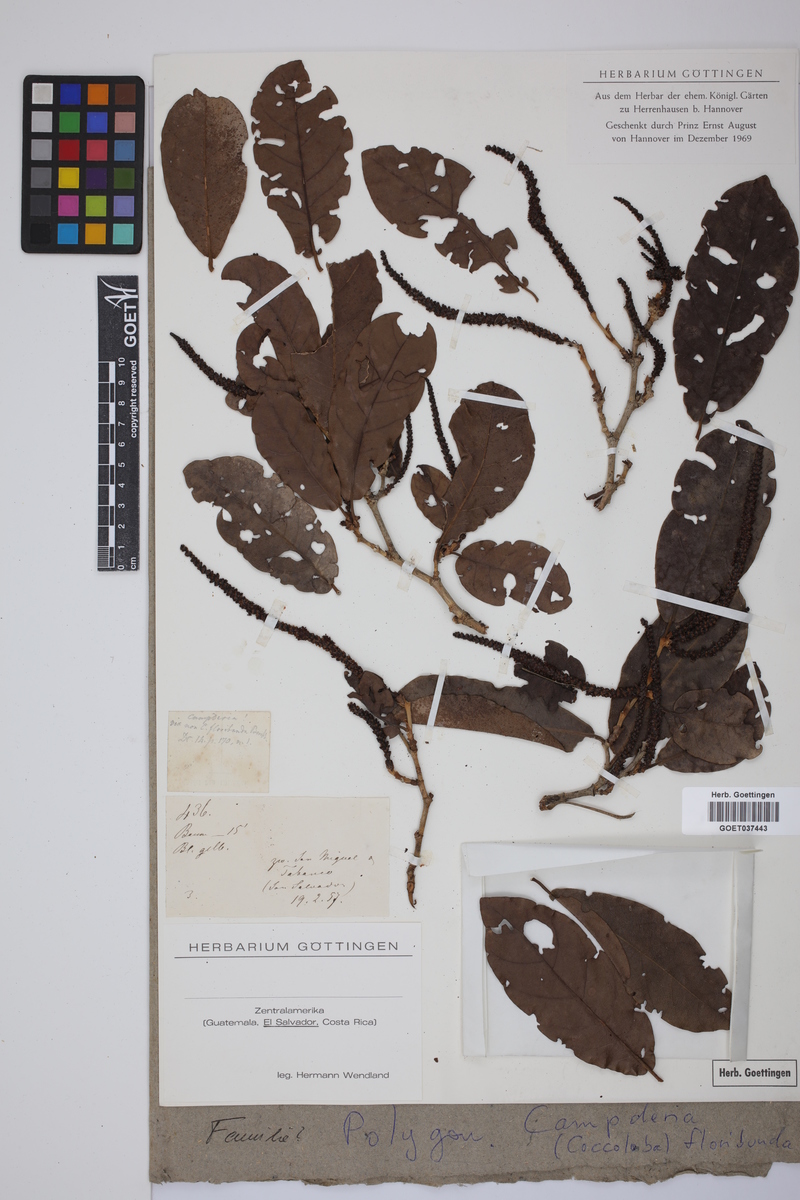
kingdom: Plantae
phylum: Tracheophyta
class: Magnoliopsida
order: Caryophyllales
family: Polygonaceae
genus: Coccoloba
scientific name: Coccoloba floribunda
